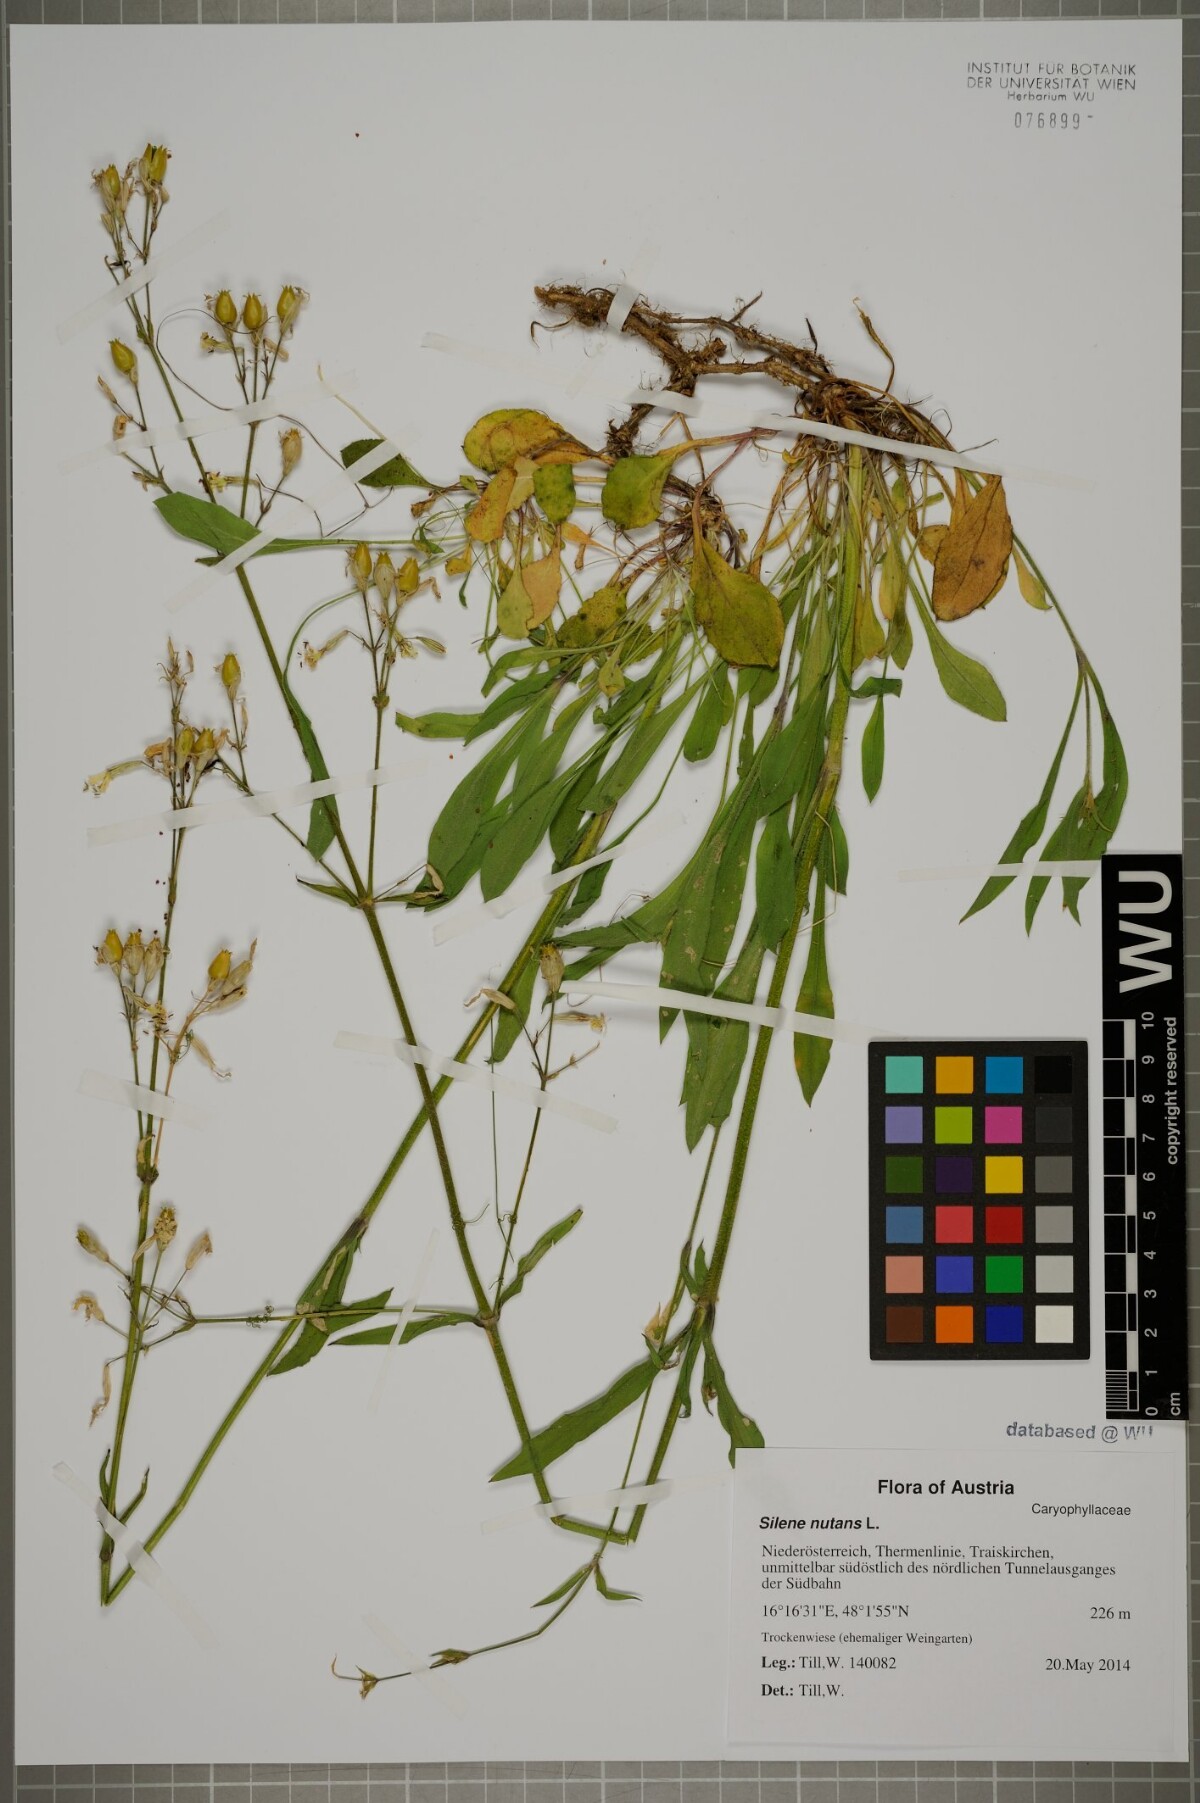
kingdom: Plantae
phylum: Tracheophyta
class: Magnoliopsida
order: Caryophyllales
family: Caryophyllaceae
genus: Silene
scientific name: Silene nutans
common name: Nottingham catchfly
